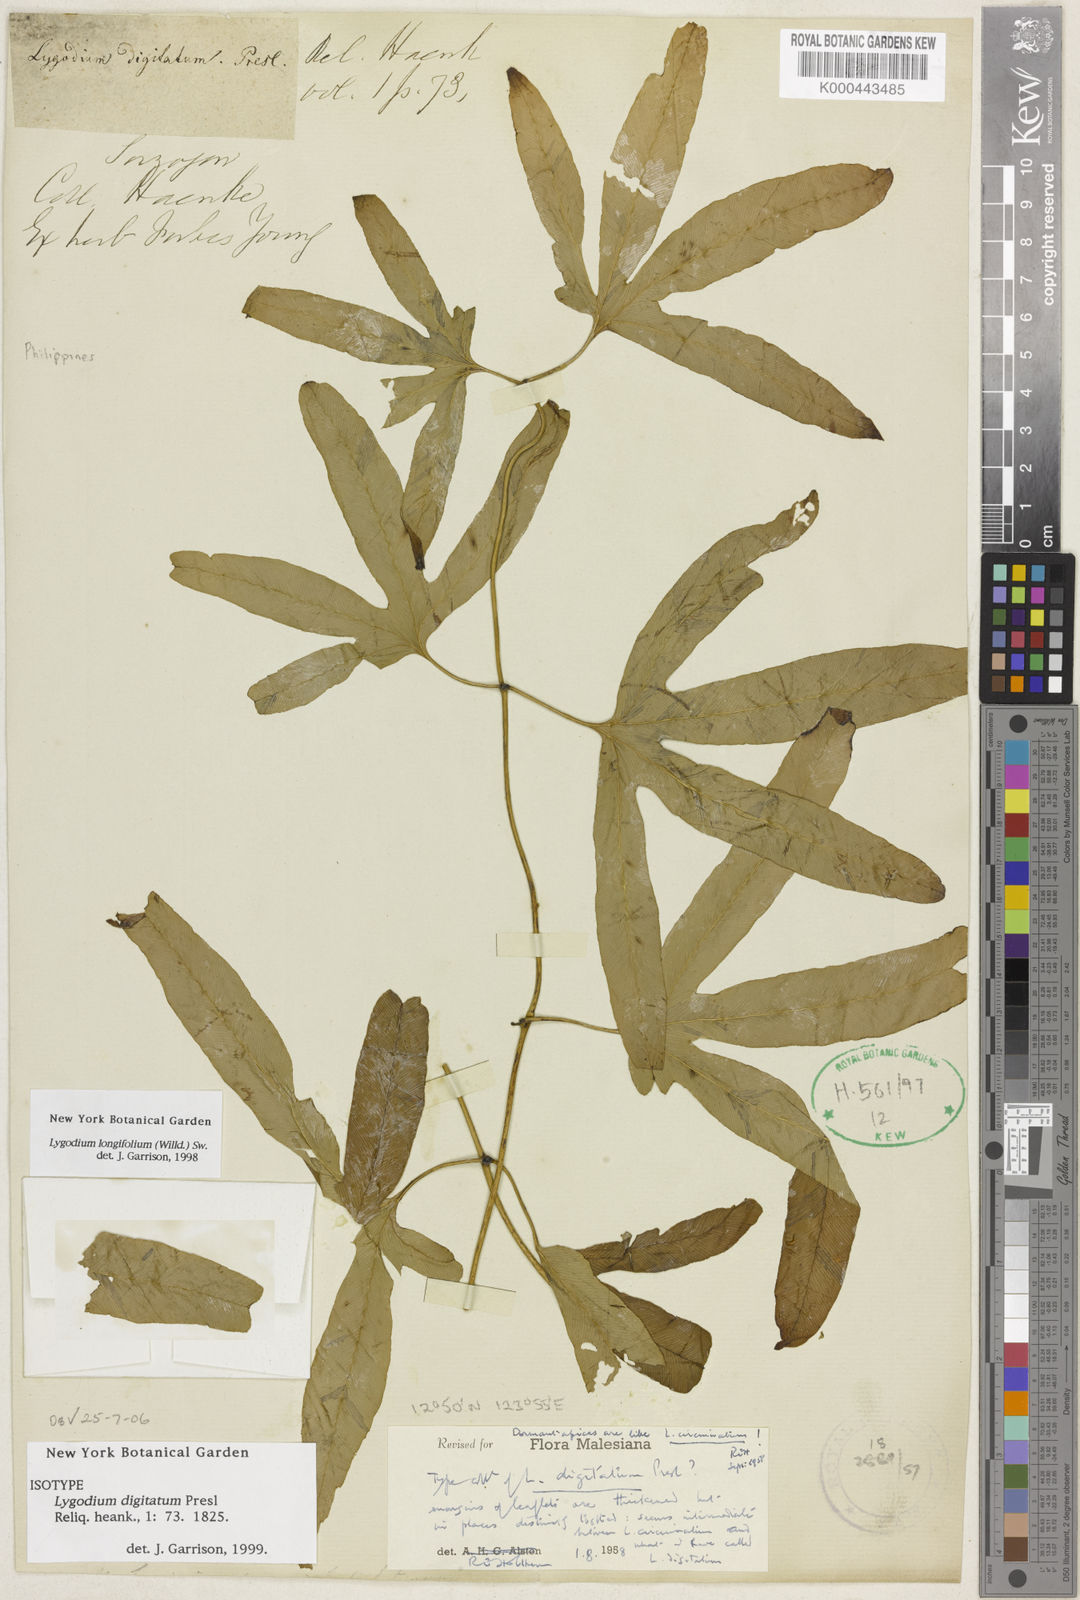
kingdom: Plantae
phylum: Tracheophyta
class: Polypodiopsida
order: Schizaeales
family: Lygodiaceae
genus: Lygodium
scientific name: Lygodium longifolium
